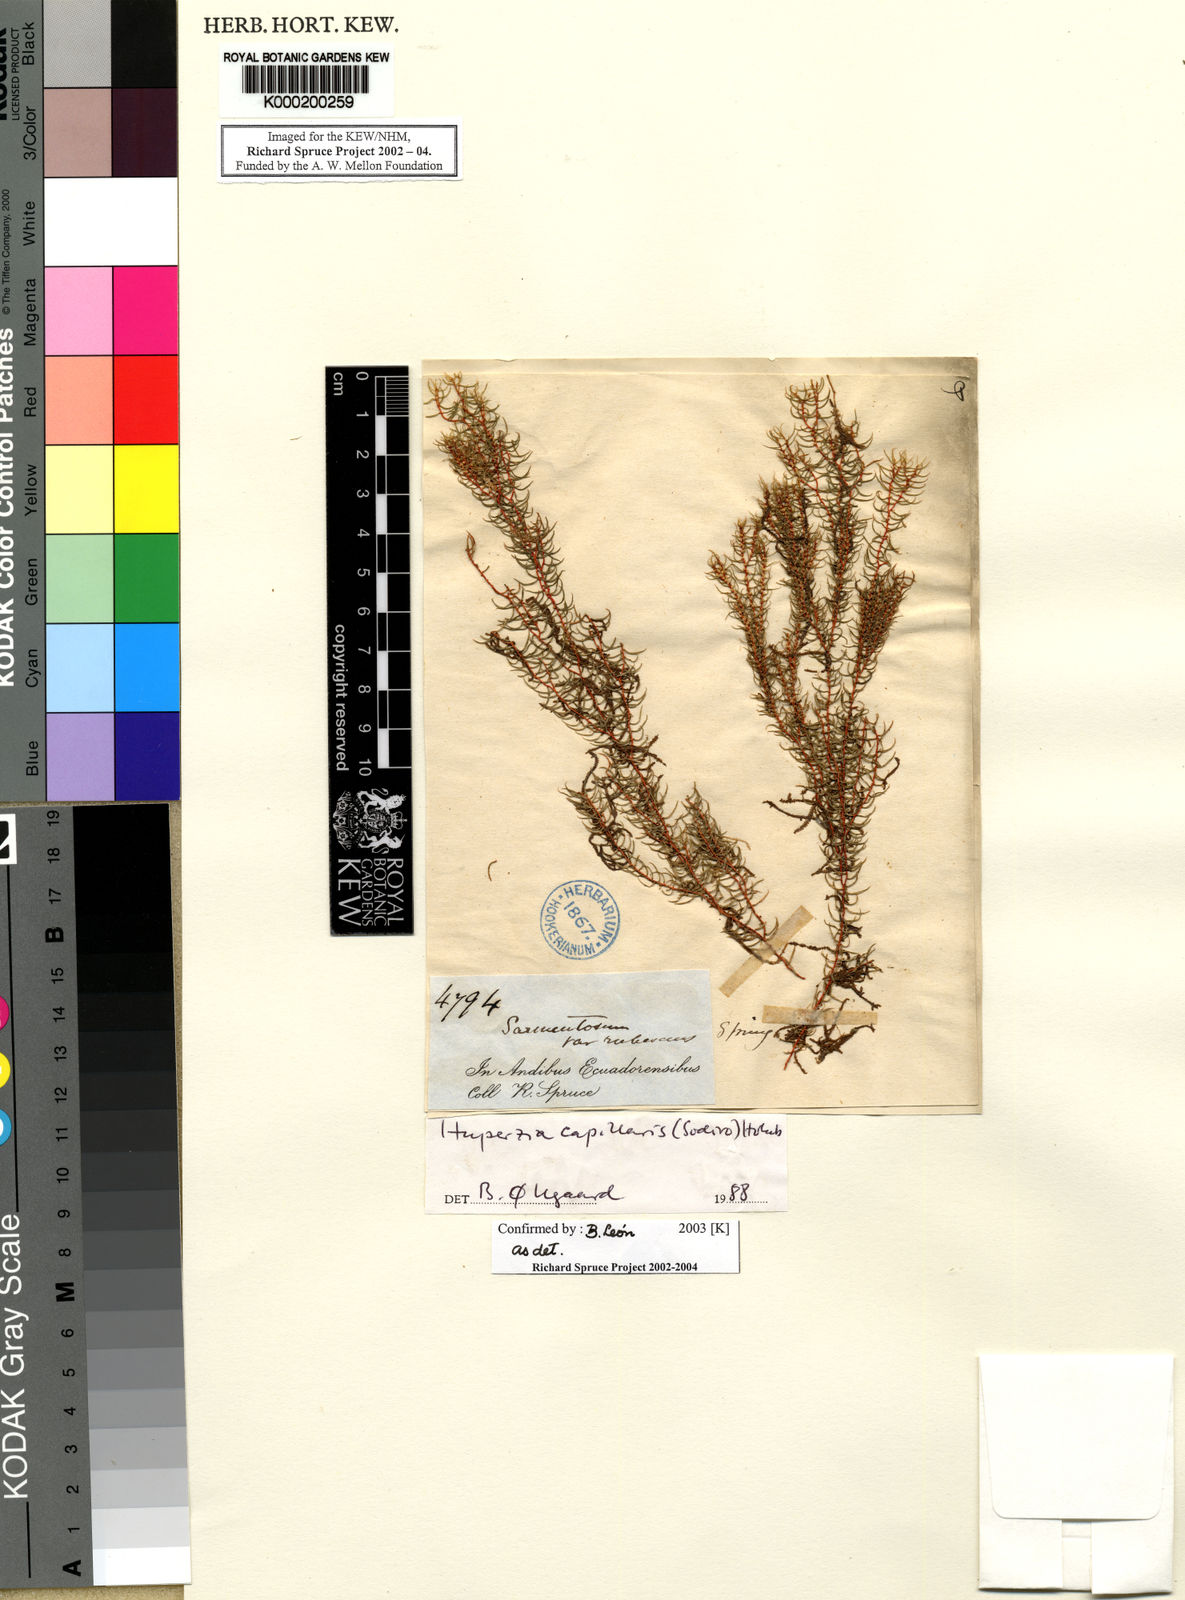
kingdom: Plantae
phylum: Tracheophyta
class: Lycopodiopsida
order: Lycopodiales
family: Lycopodiaceae
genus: Phlegmariurus
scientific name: Phlegmariurus capillaris
